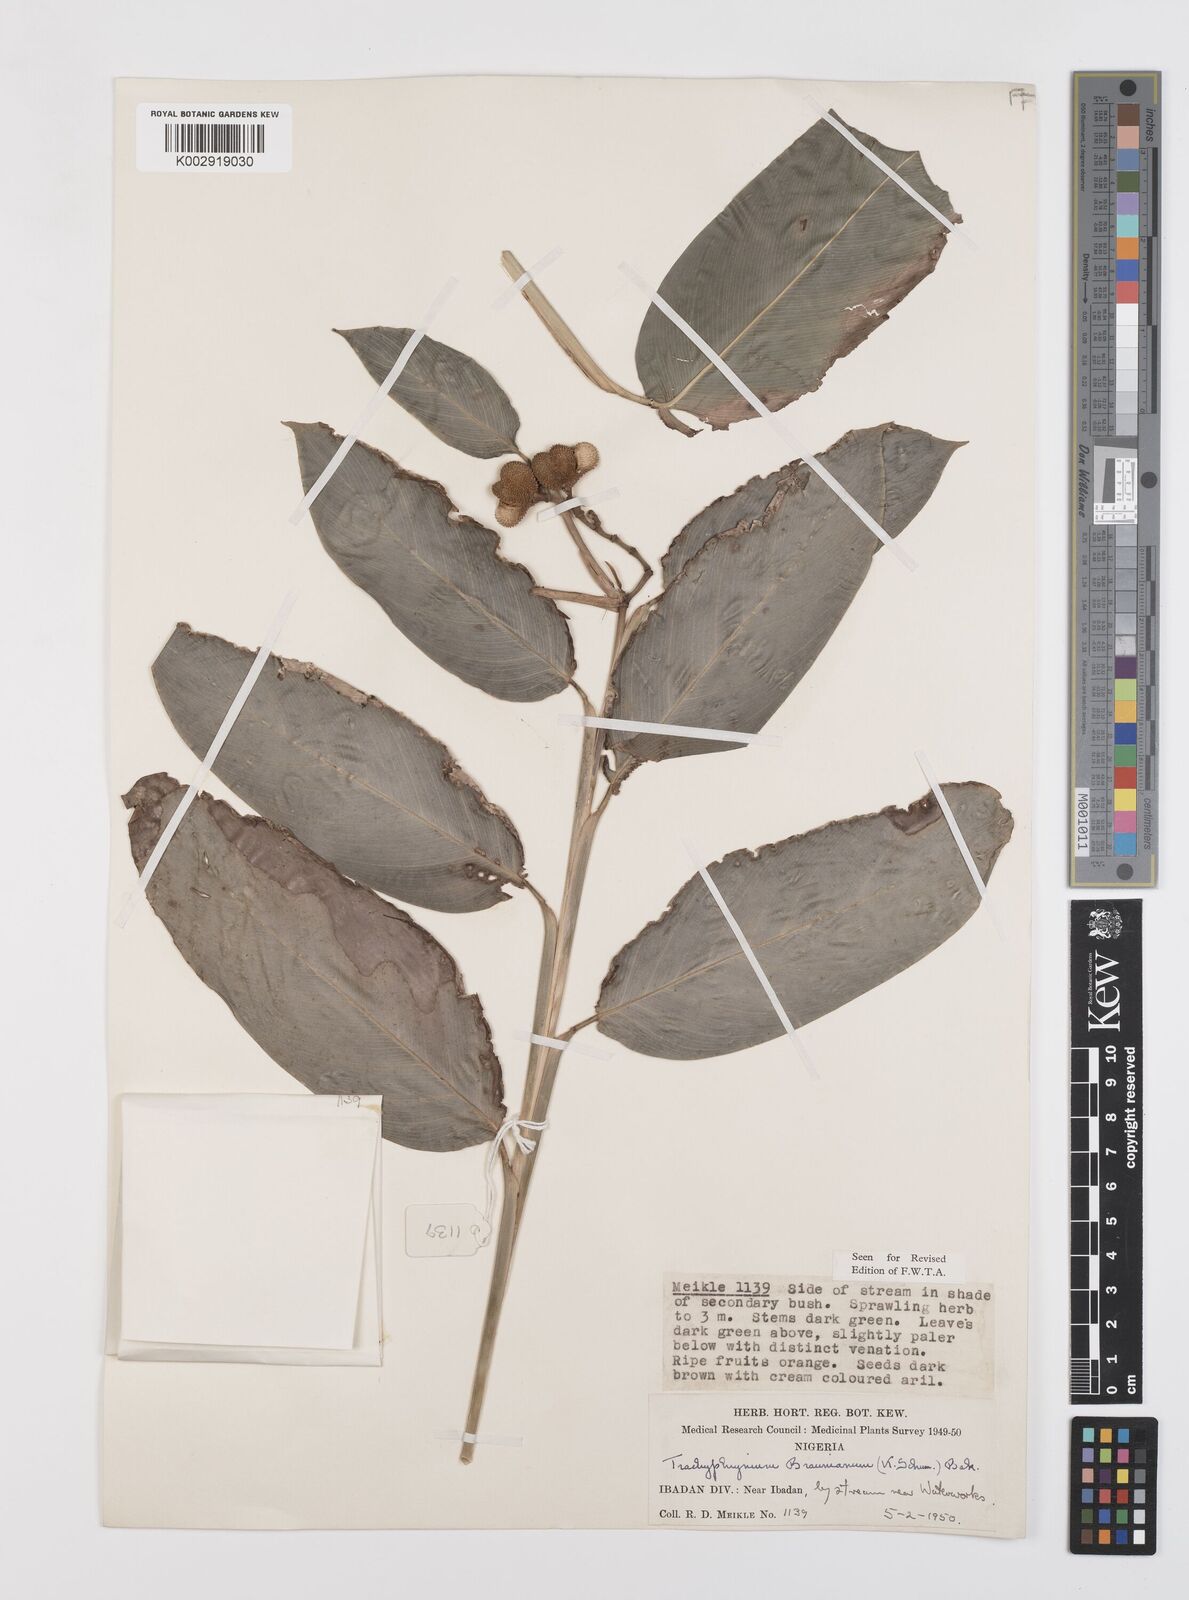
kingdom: Plantae
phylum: Tracheophyta
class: Liliopsida
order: Zingiberales
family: Marantaceae
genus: Trachyphrynium
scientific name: Trachyphrynium braunianum
